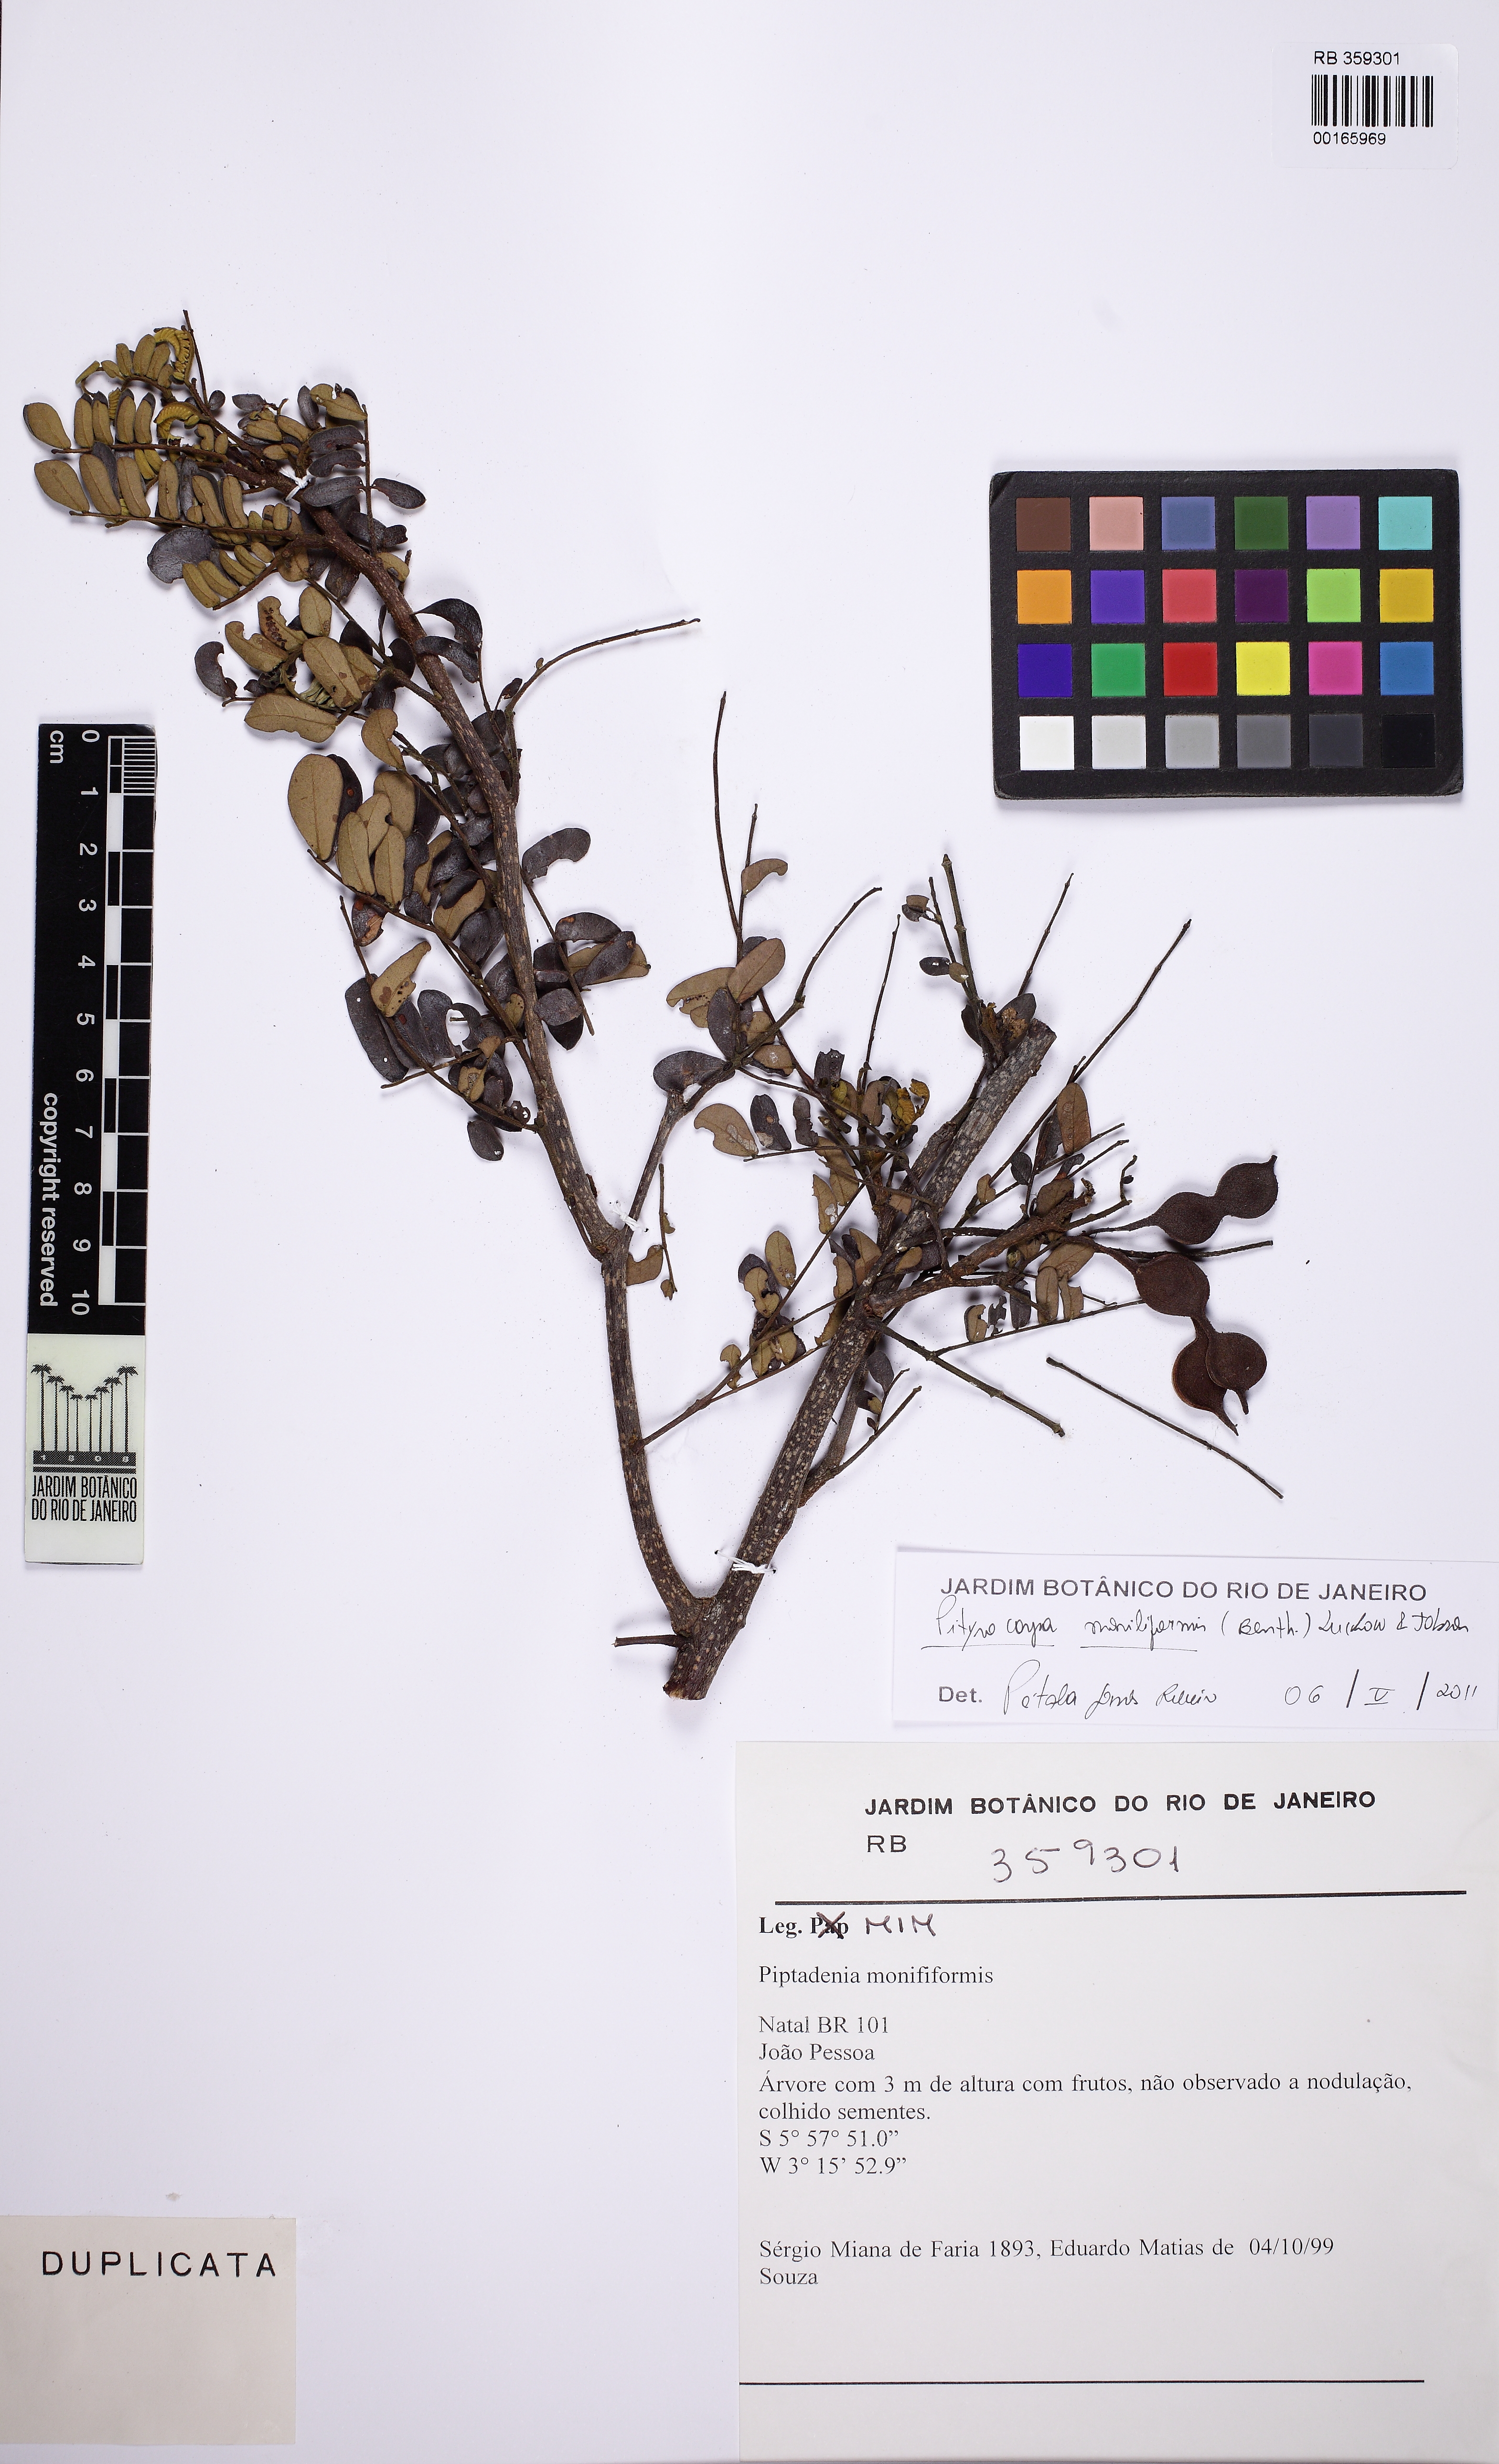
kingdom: Plantae
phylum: Tracheophyta
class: Magnoliopsida
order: Fabales
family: Fabaceae
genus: Pityrocarpa
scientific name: Pityrocarpa moniliformis
